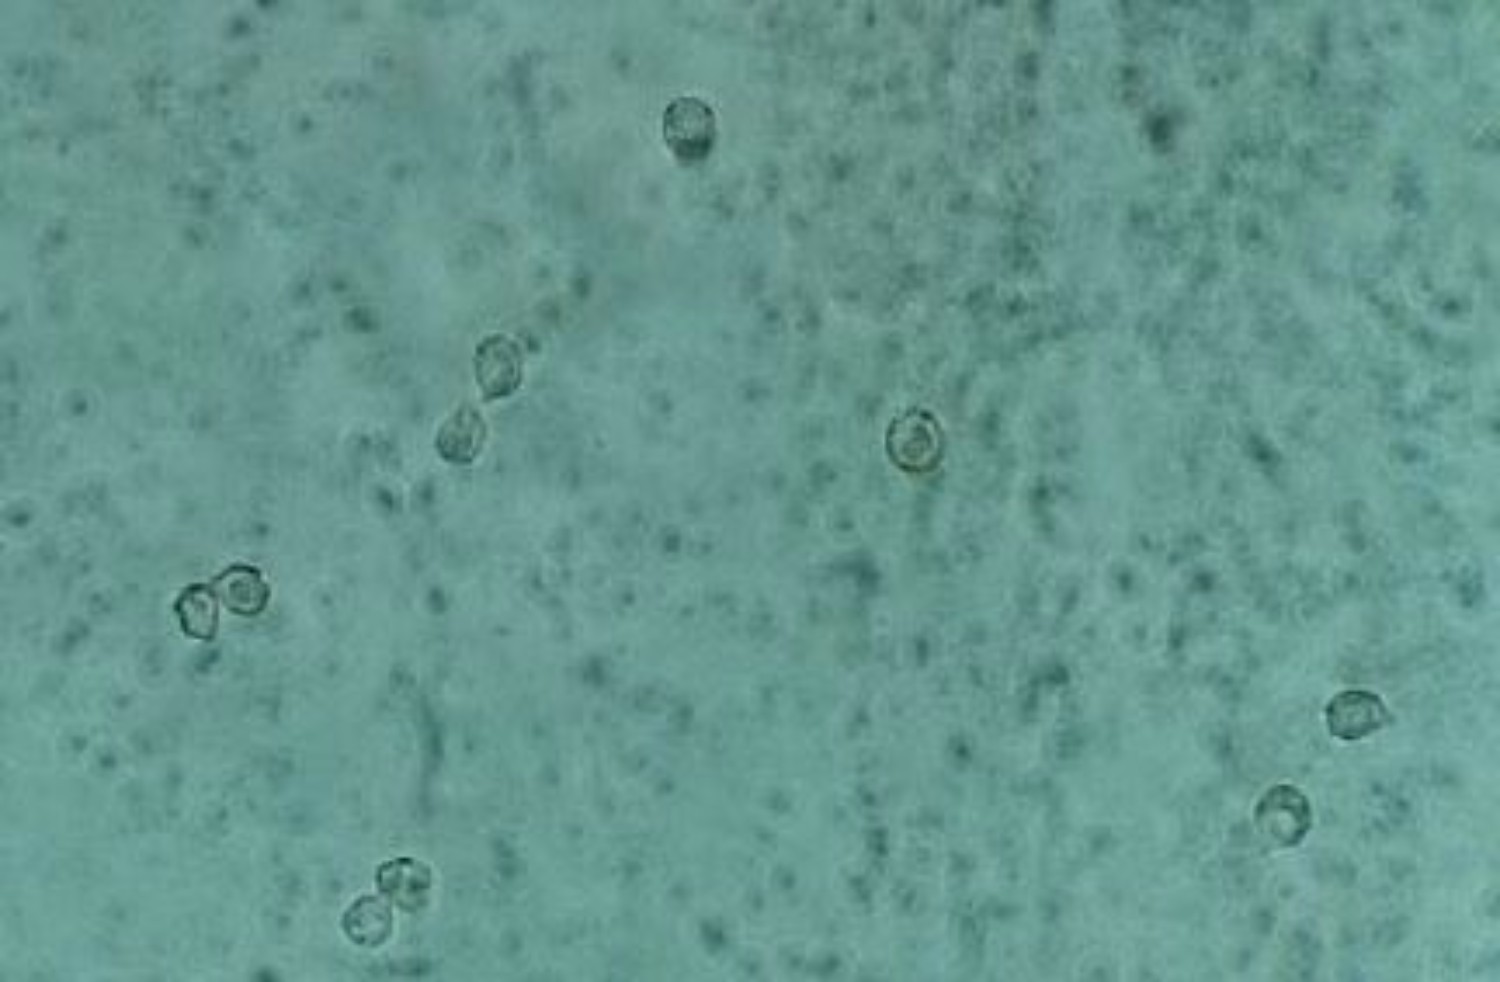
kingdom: Fungi
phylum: Basidiomycota
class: Agaricomycetes
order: Agaricales
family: Tricholomataceae
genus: Ripartites
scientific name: Ripartites tricholoma
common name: almindelig skæghat
